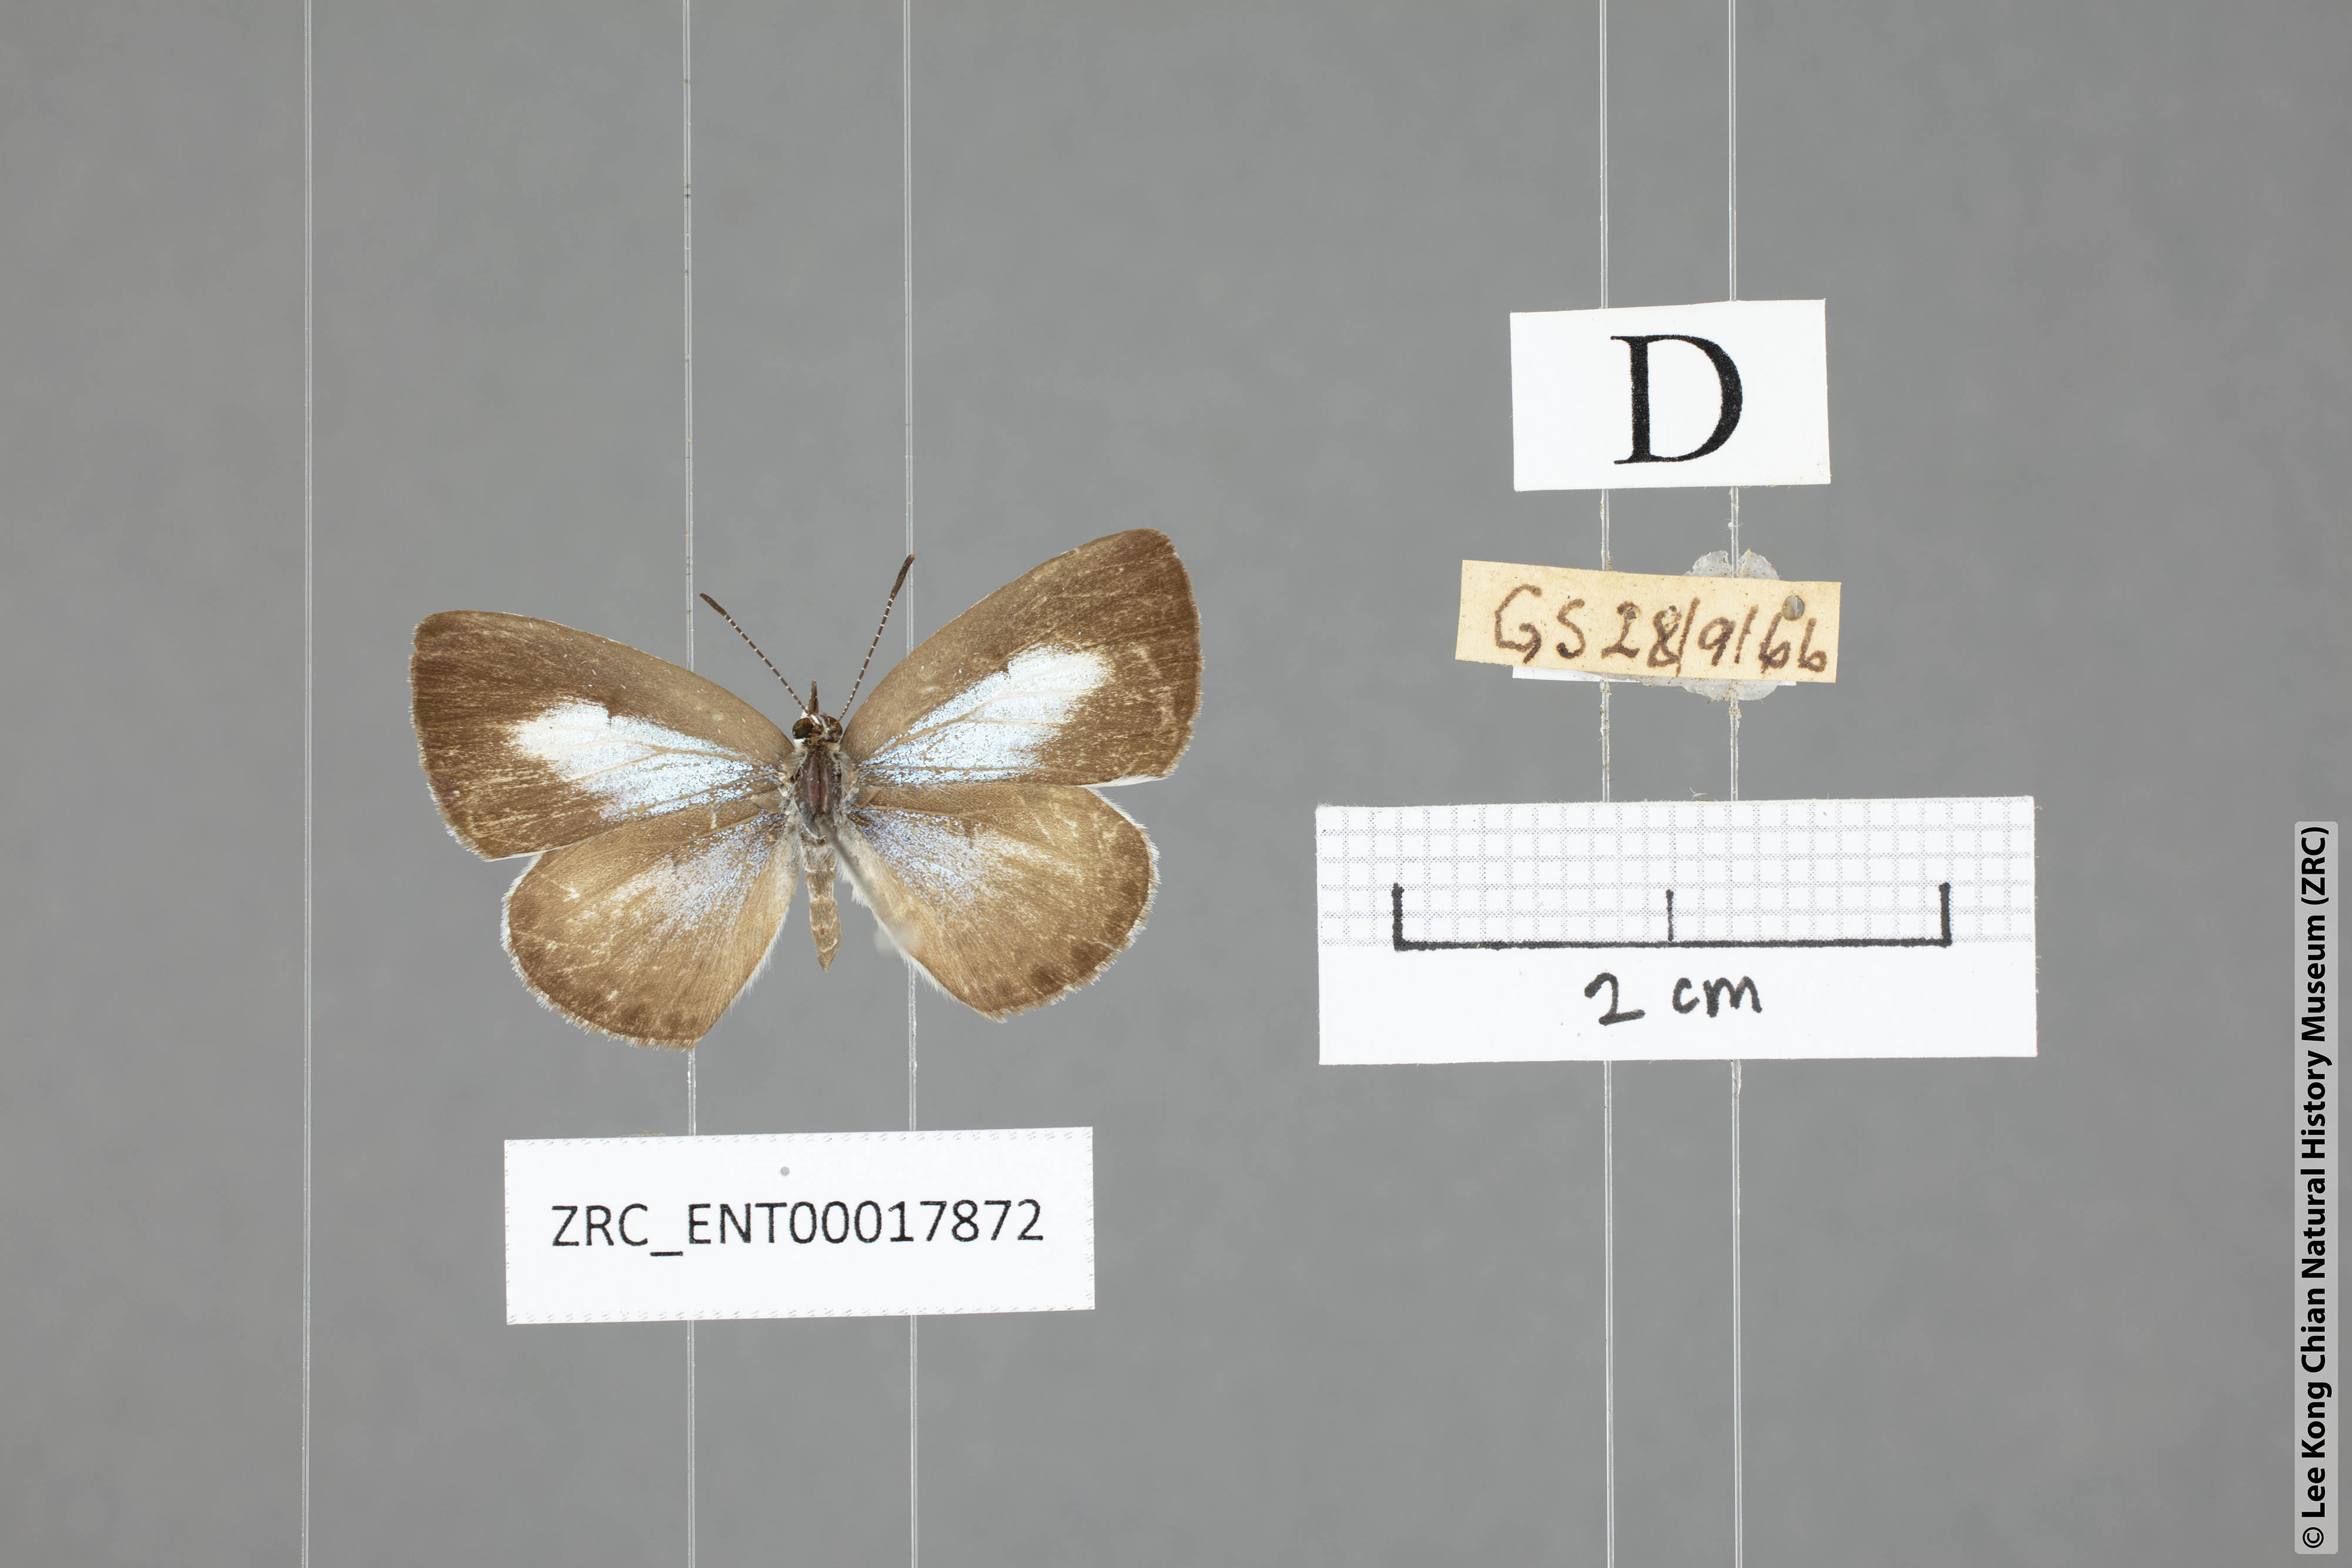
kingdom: Animalia
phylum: Arthropoda
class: Insecta
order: Lepidoptera
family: Lycaenidae
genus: Acytolepis
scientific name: Acytolepis puspa
